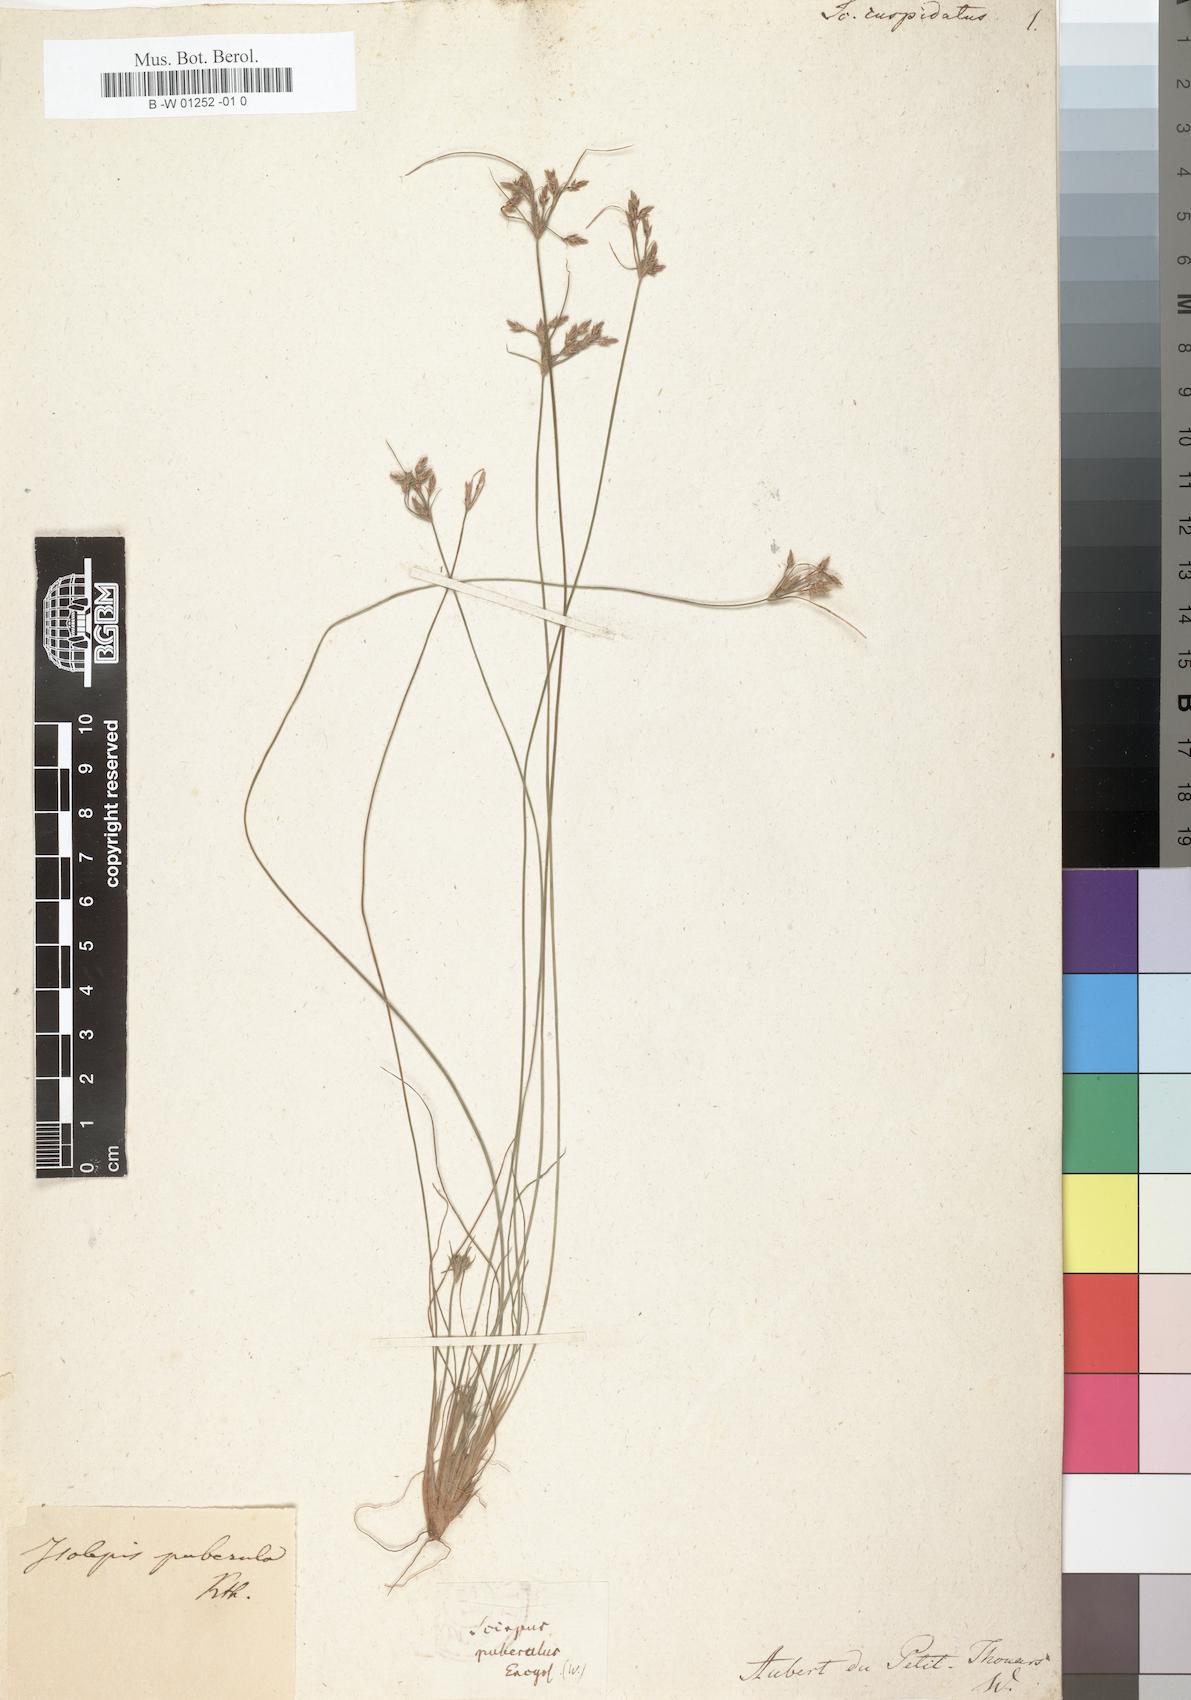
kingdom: Plantae
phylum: Tracheophyta
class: Liliopsida
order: Poales
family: Cyperaceae
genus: Scirpus
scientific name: Scirpus cuspidatus
